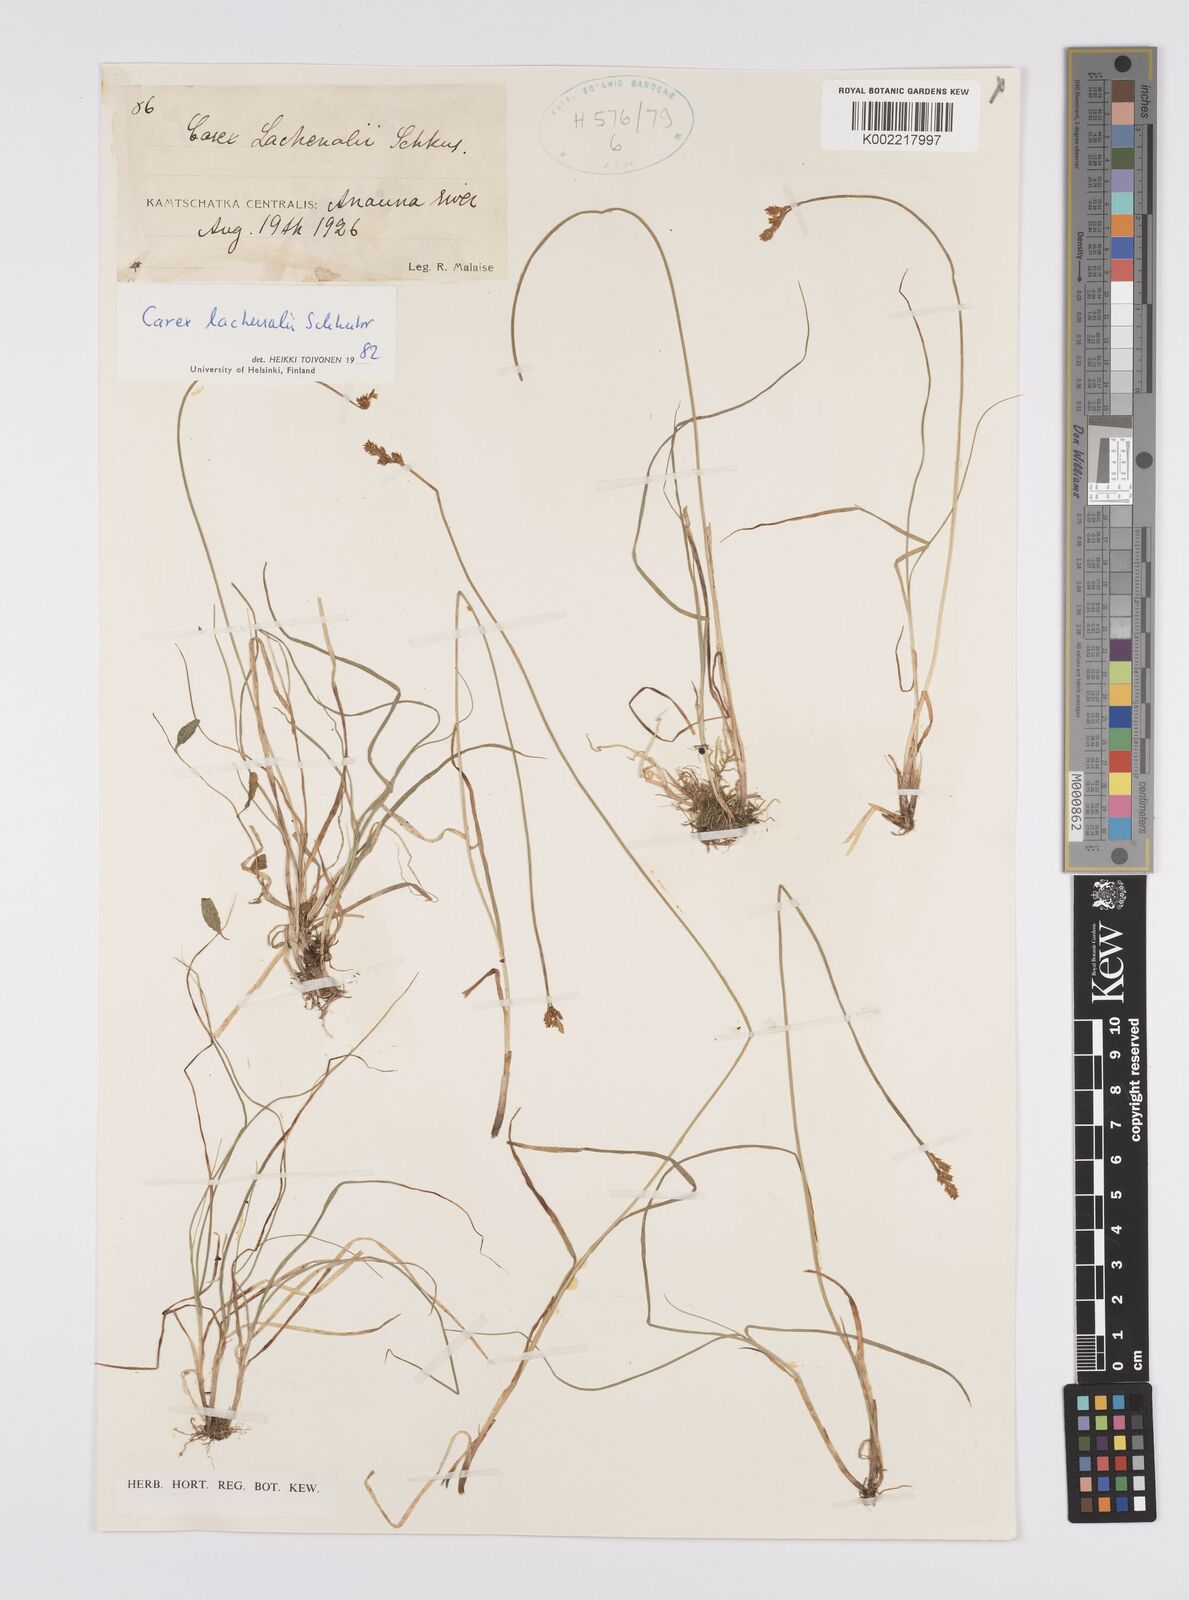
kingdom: Plantae
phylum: Tracheophyta
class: Liliopsida
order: Poales
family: Cyperaceae
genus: Carex
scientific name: Carex lachenalii
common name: Hare's-foot sedge
